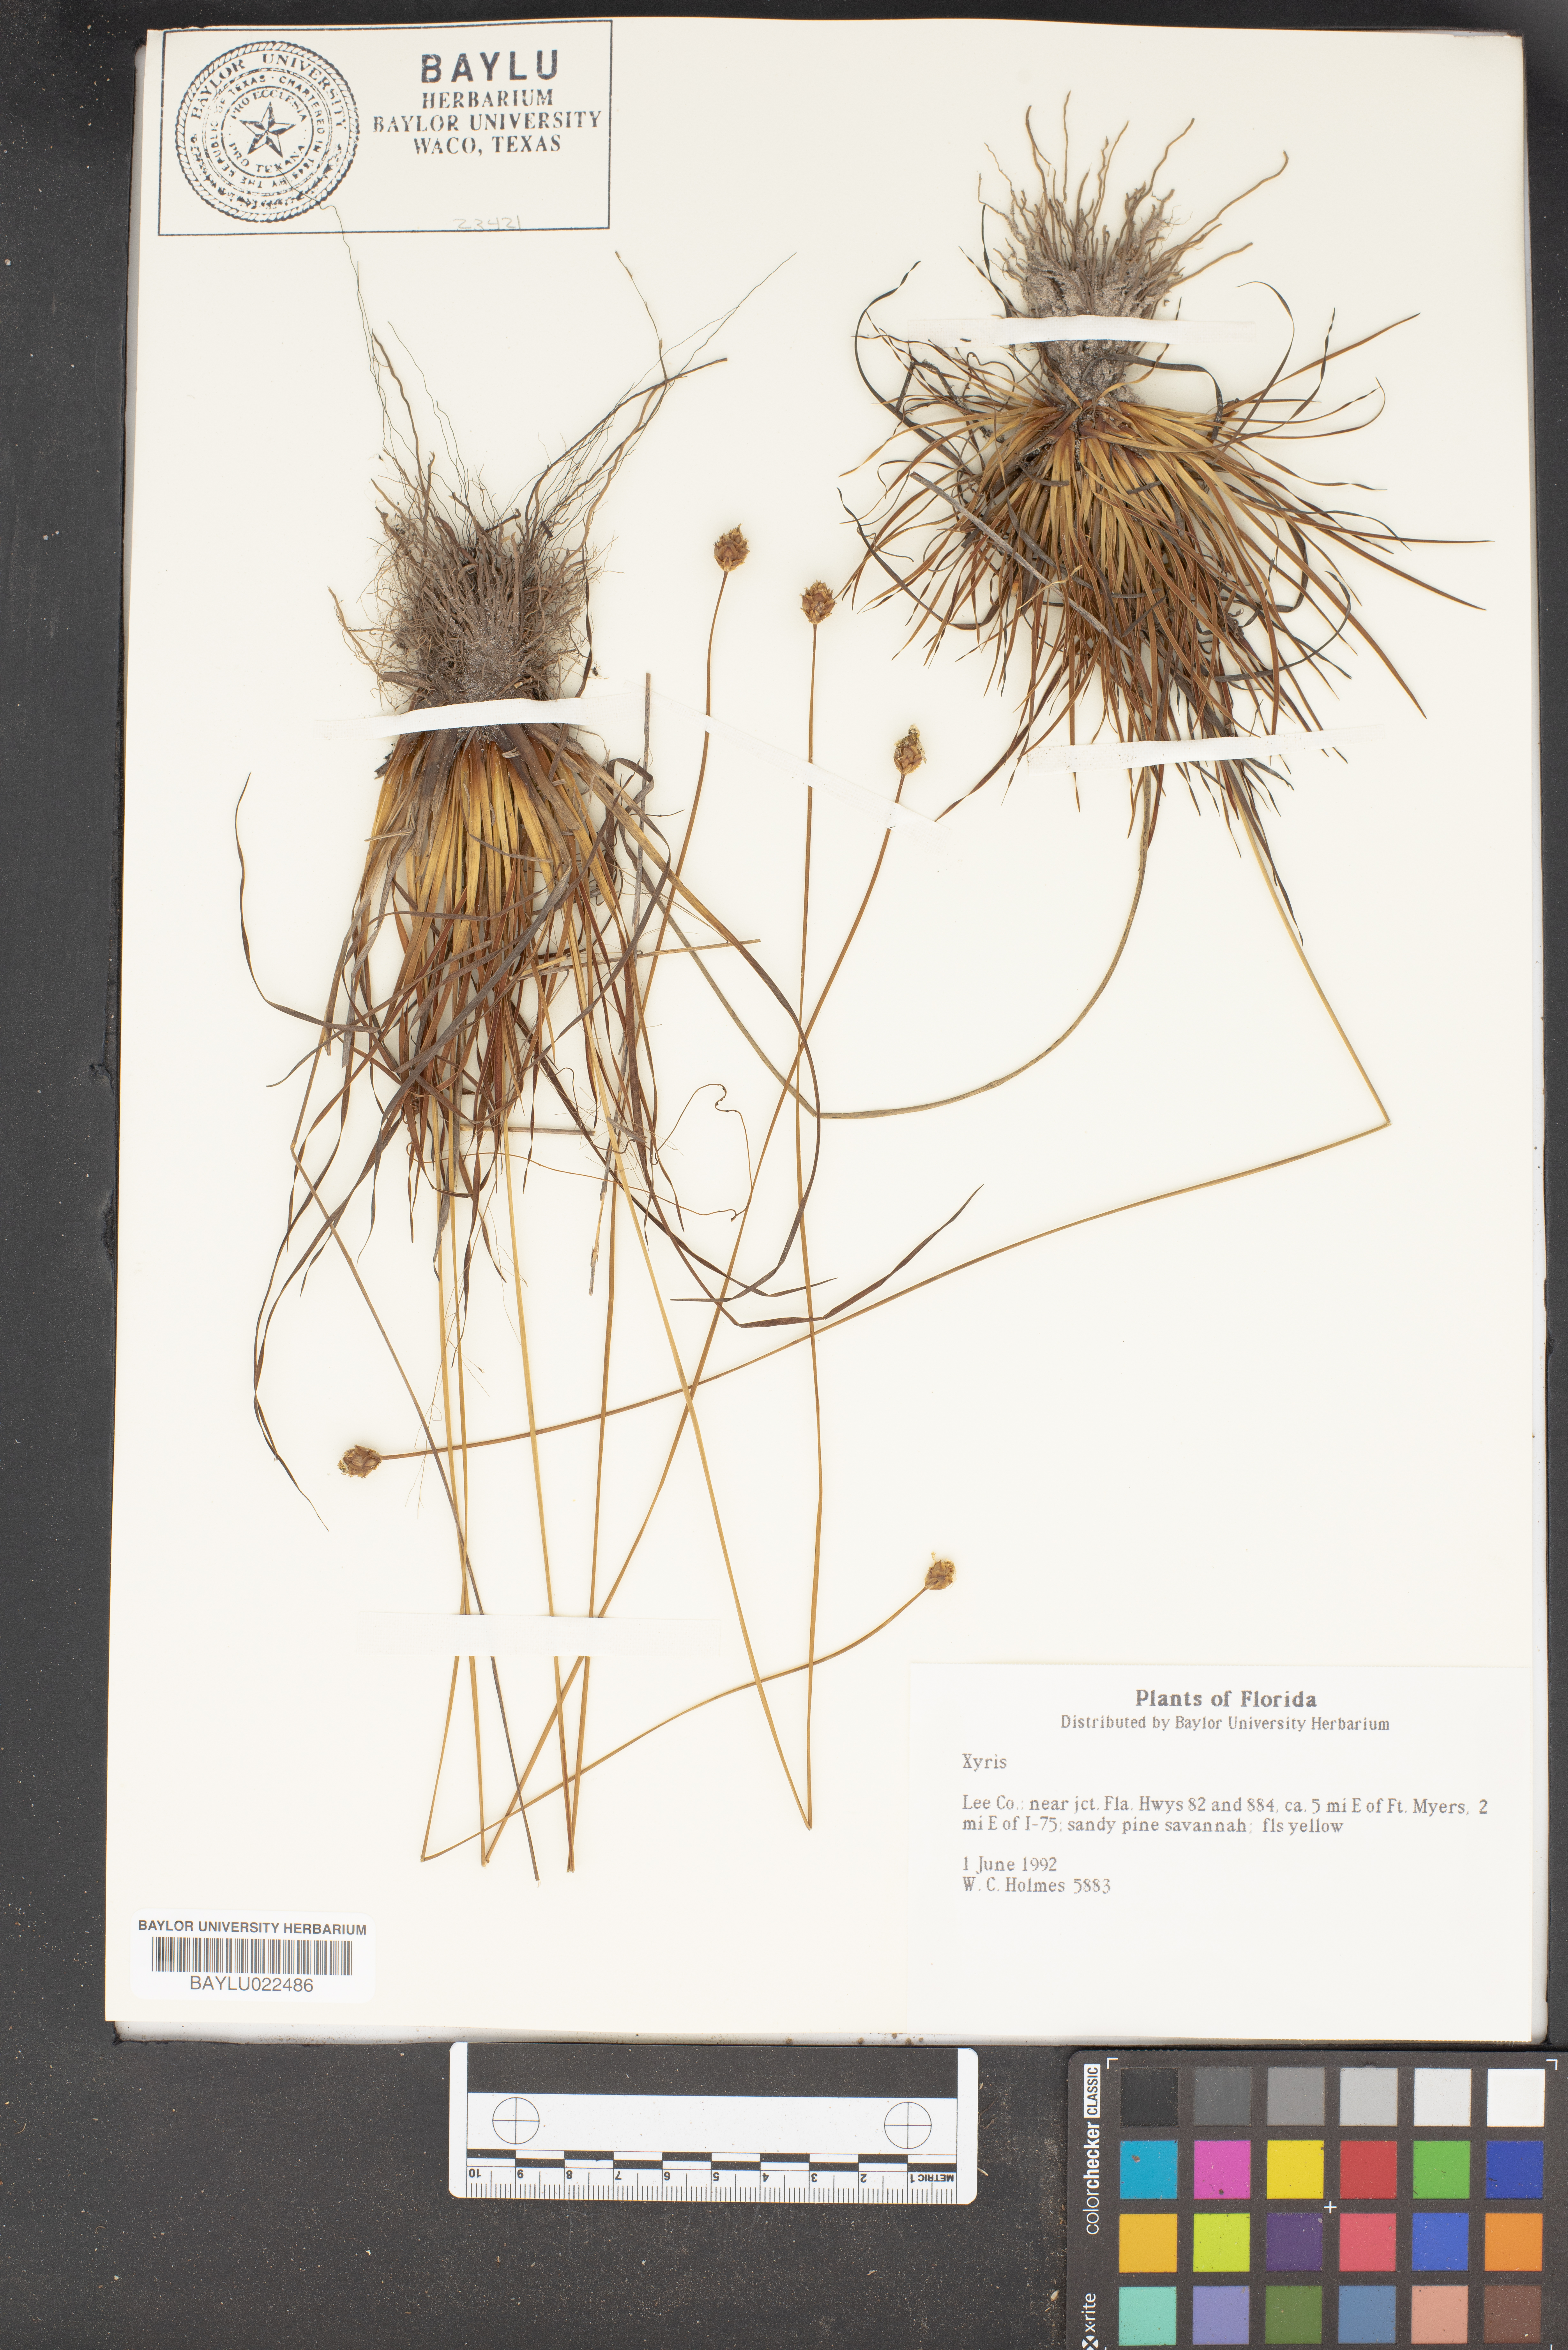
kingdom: Plantae
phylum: Tracheophyta
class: Liliopsida
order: Poales
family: Xyridaceae
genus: Xyris
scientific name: Xyris
